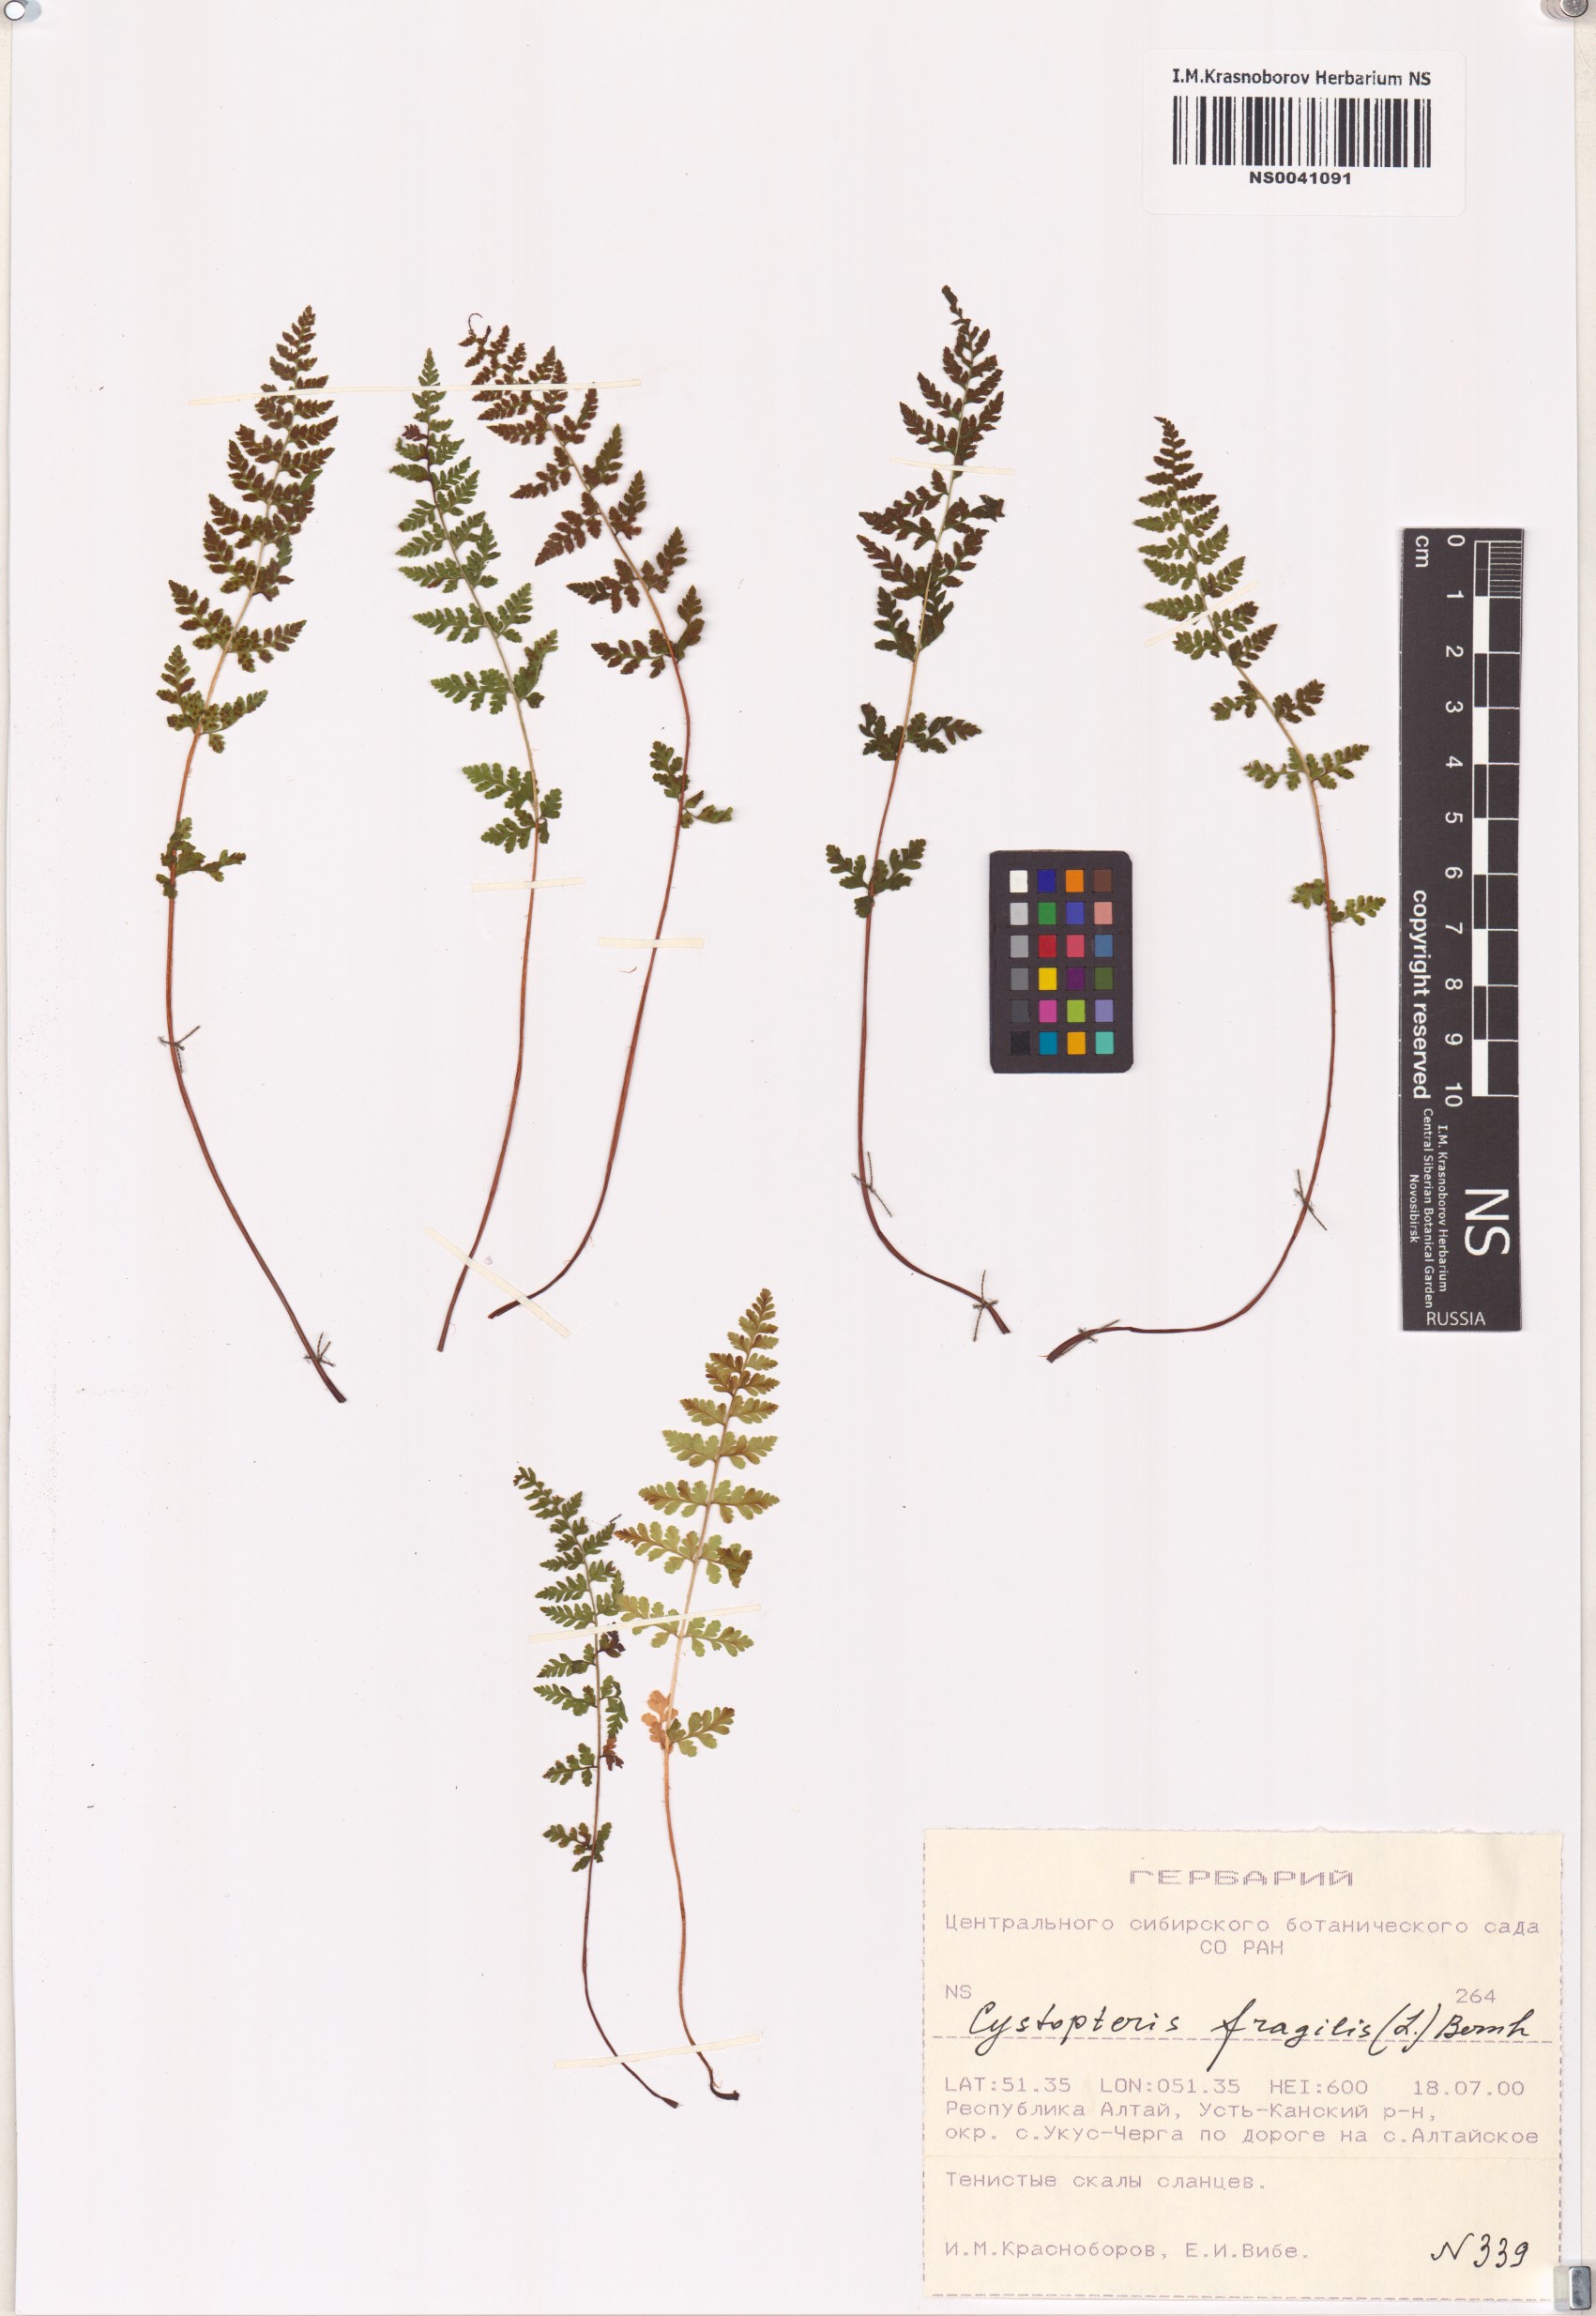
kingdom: Plantae
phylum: Tracheophyta
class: Polypodiopsida
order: Polypodiales
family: Cystopteridaceae
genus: Cystopteris
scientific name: Cystopteris fragilis
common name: Brittle bladder fern
